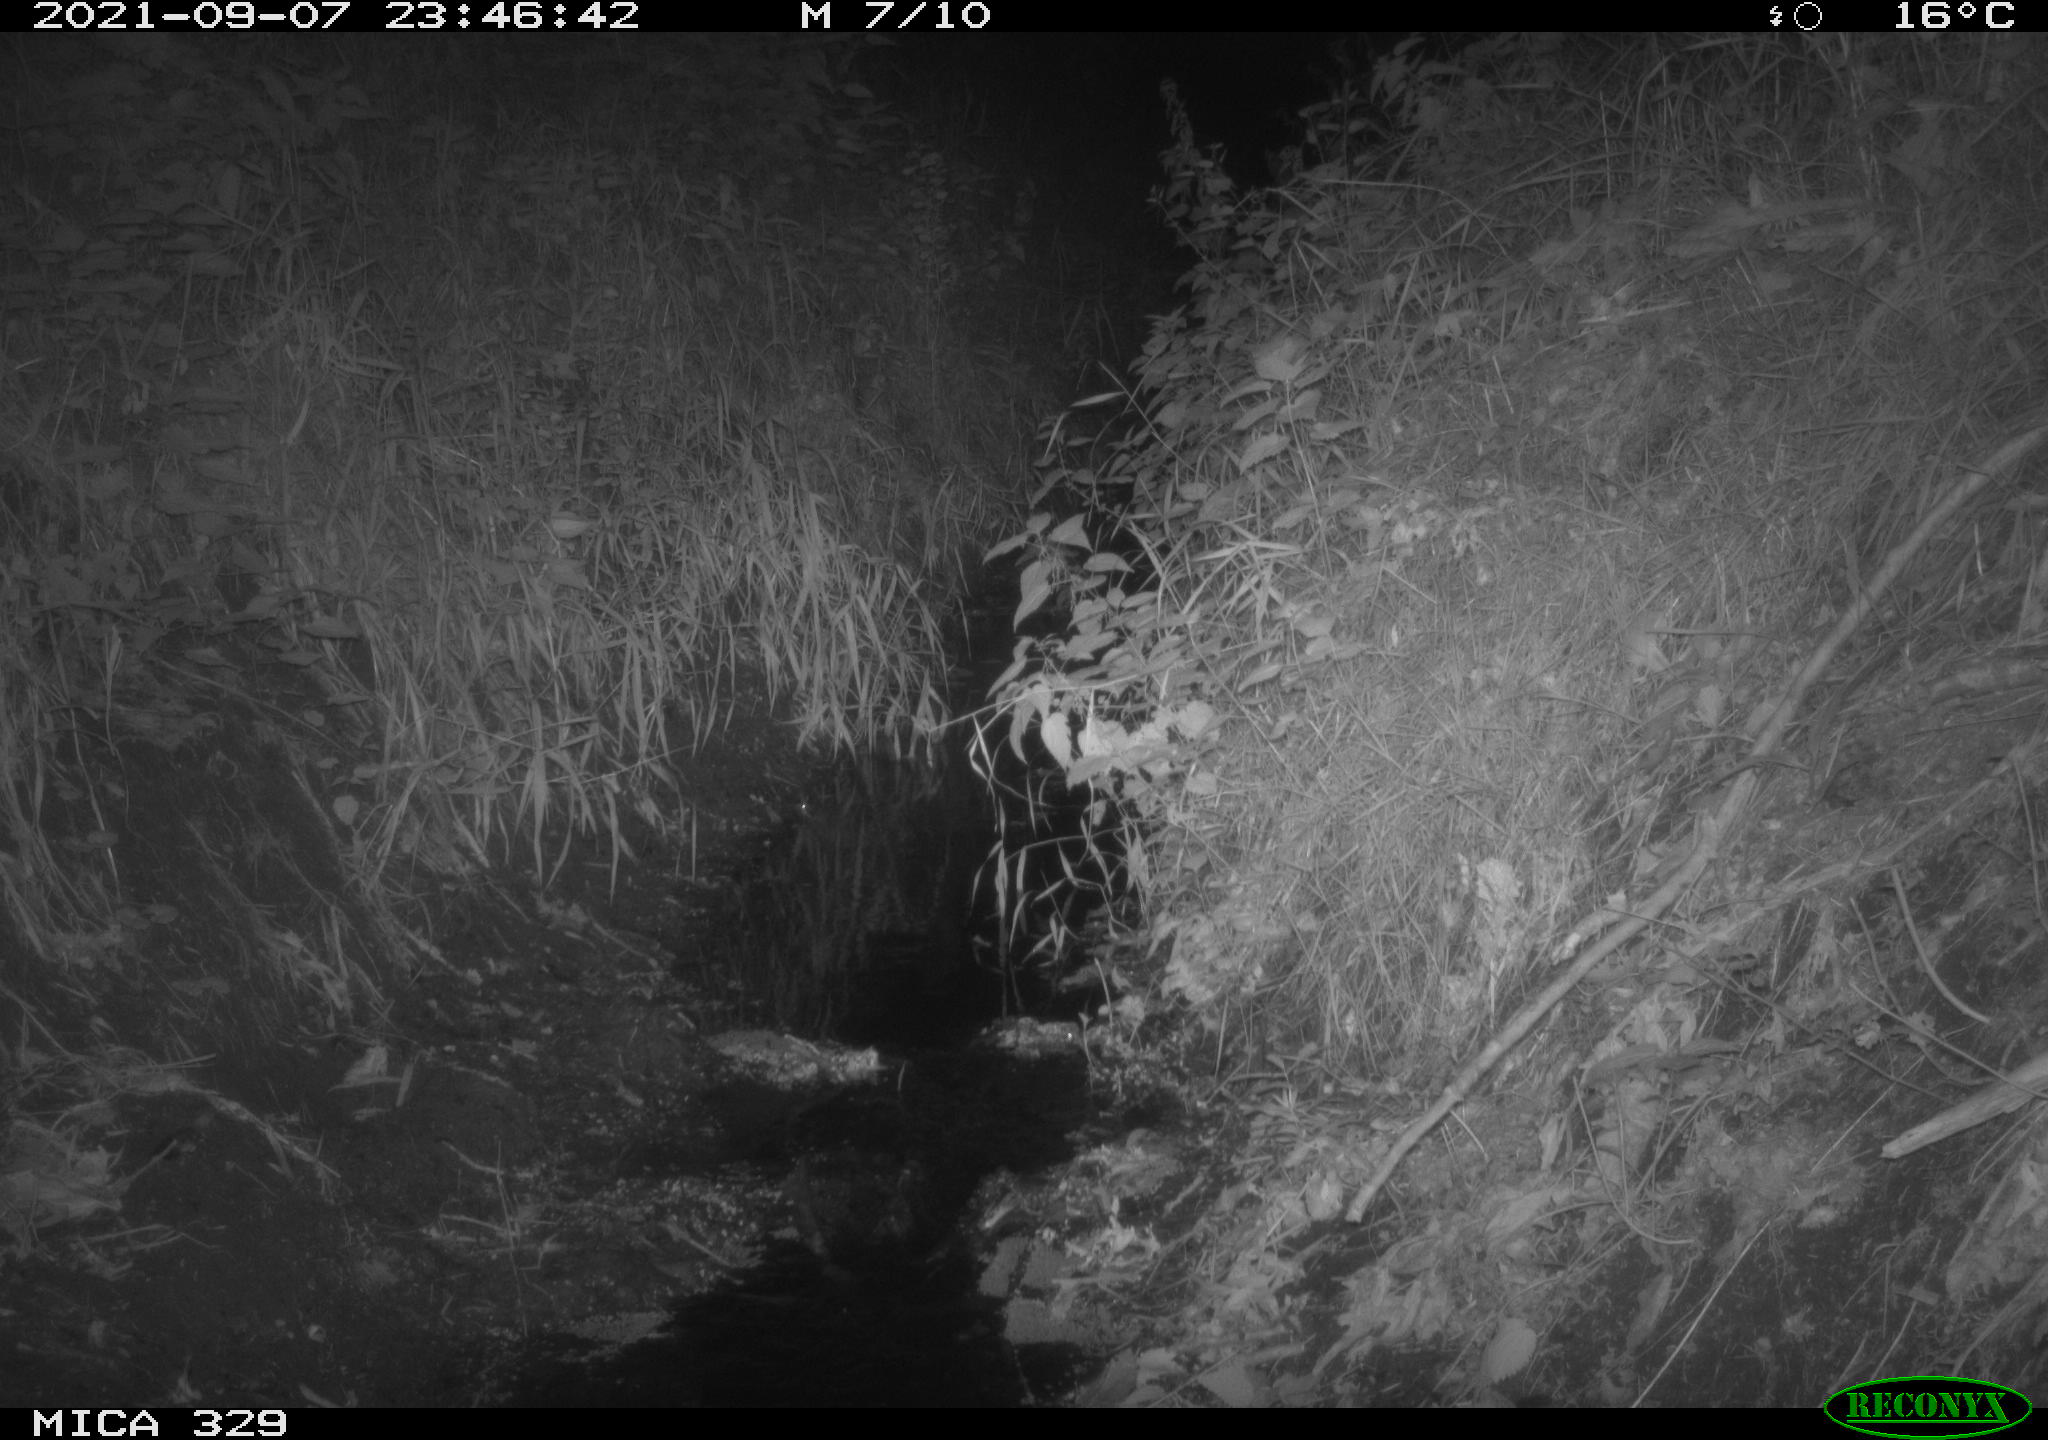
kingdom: Animalia
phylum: Chordata
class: Mammalia
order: Rodentia
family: Muridae
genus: Rattus
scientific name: Rattus norvegicus
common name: Brown rat
